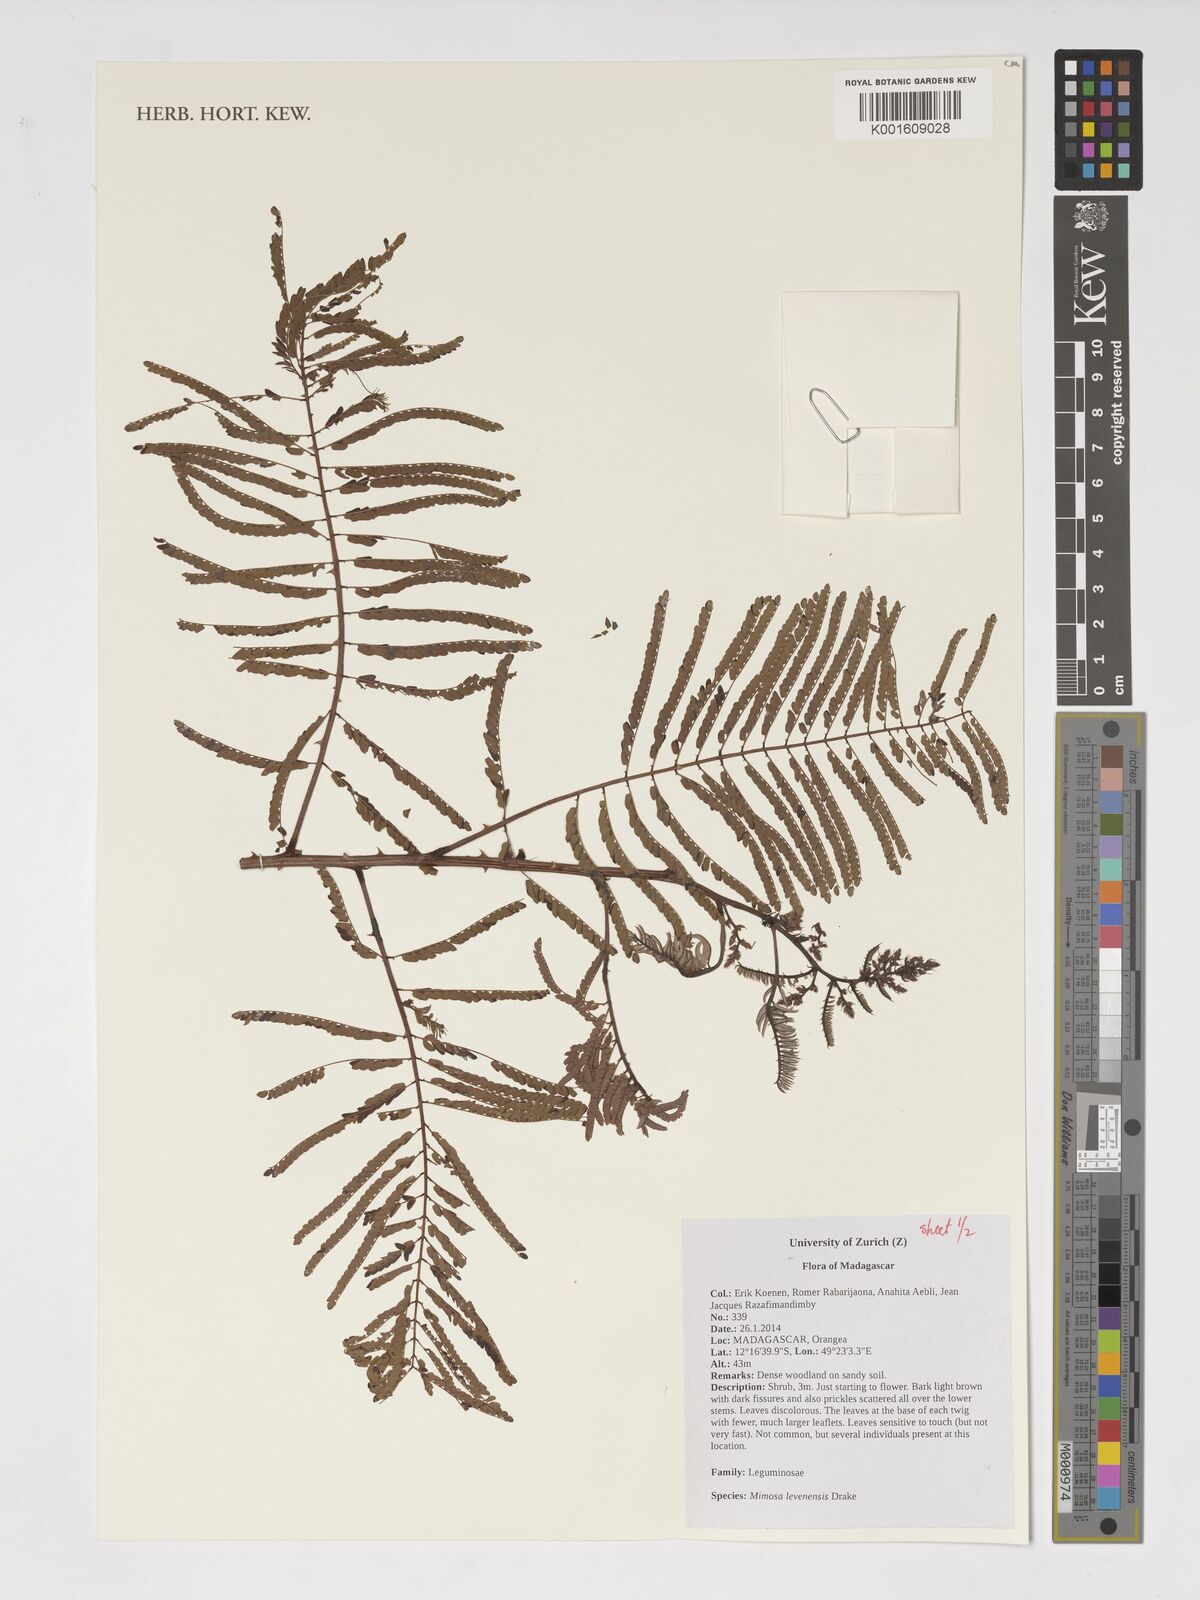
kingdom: Plantae
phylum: Tracheophyta
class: Magnoliopsida
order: Fabales
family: Fabaceae
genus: Mimosa
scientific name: Mimosa levenensis
